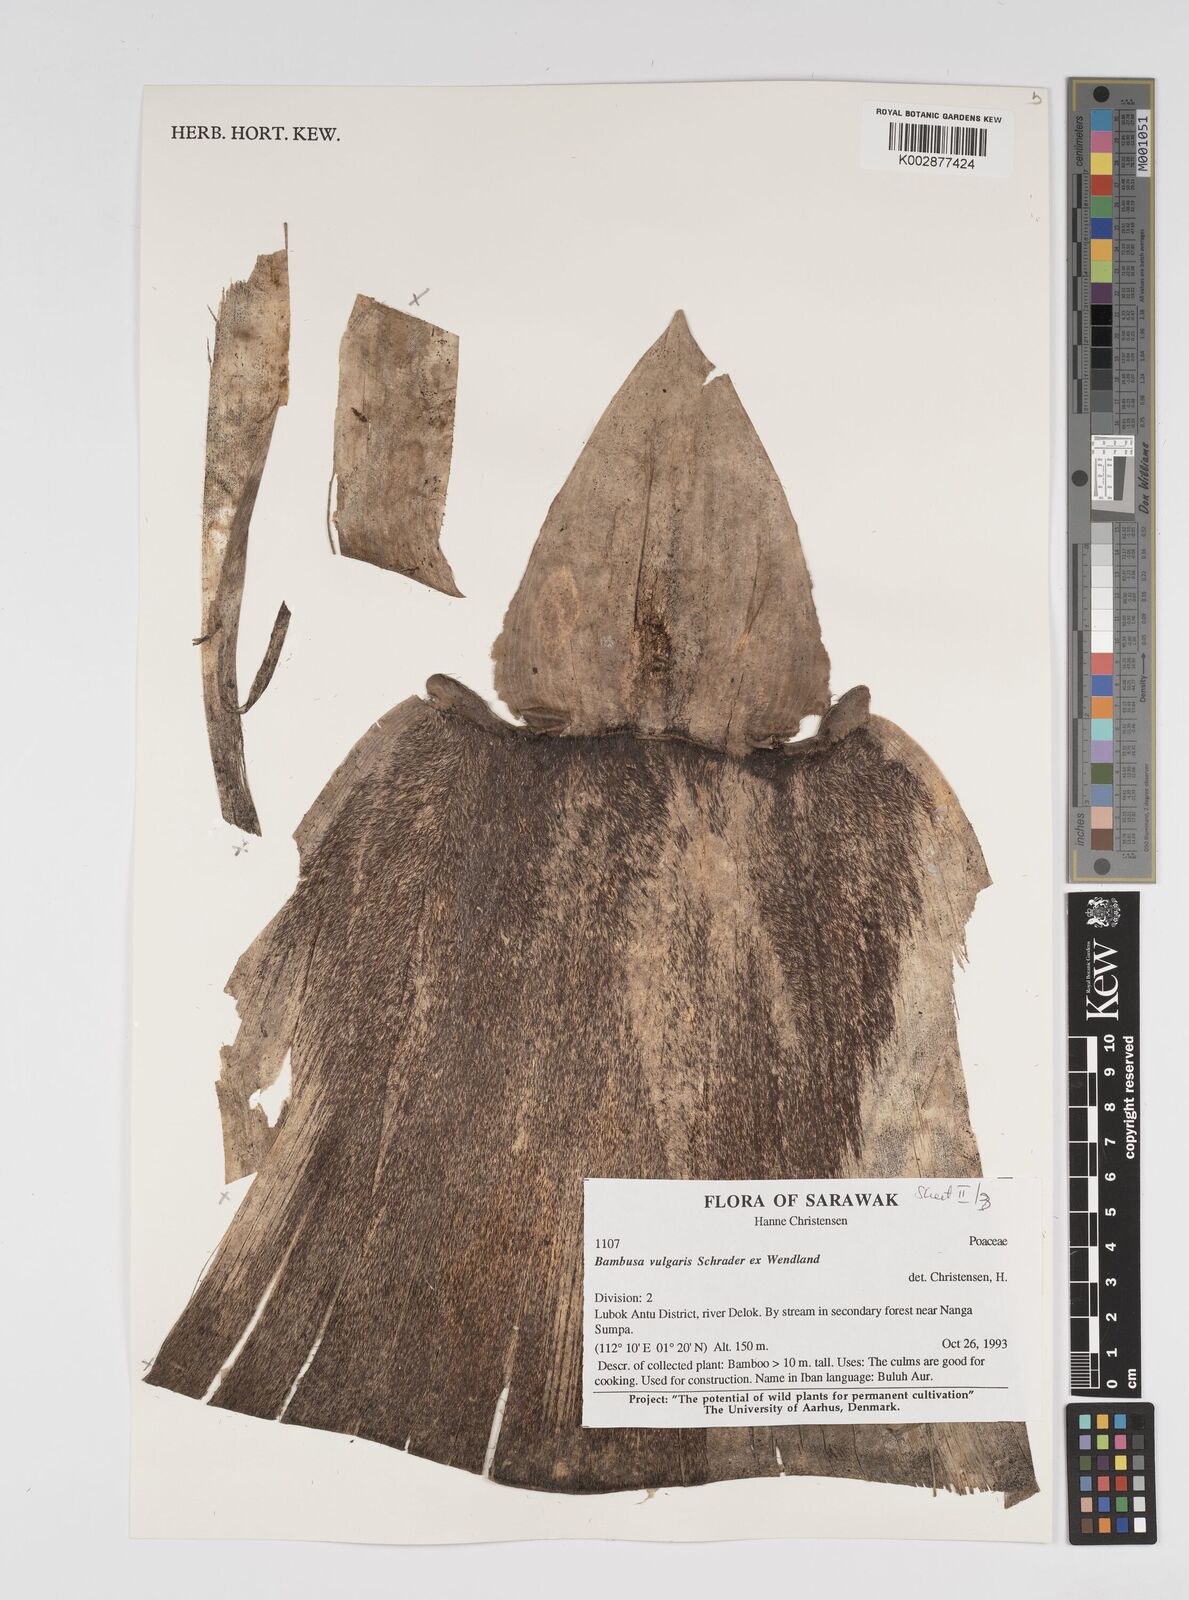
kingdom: Plantae
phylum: Tracheophyta
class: Liliopsida
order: Poales
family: Poaceae
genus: Bambusa
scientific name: Bambusa vulgaris
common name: Common bamboo
